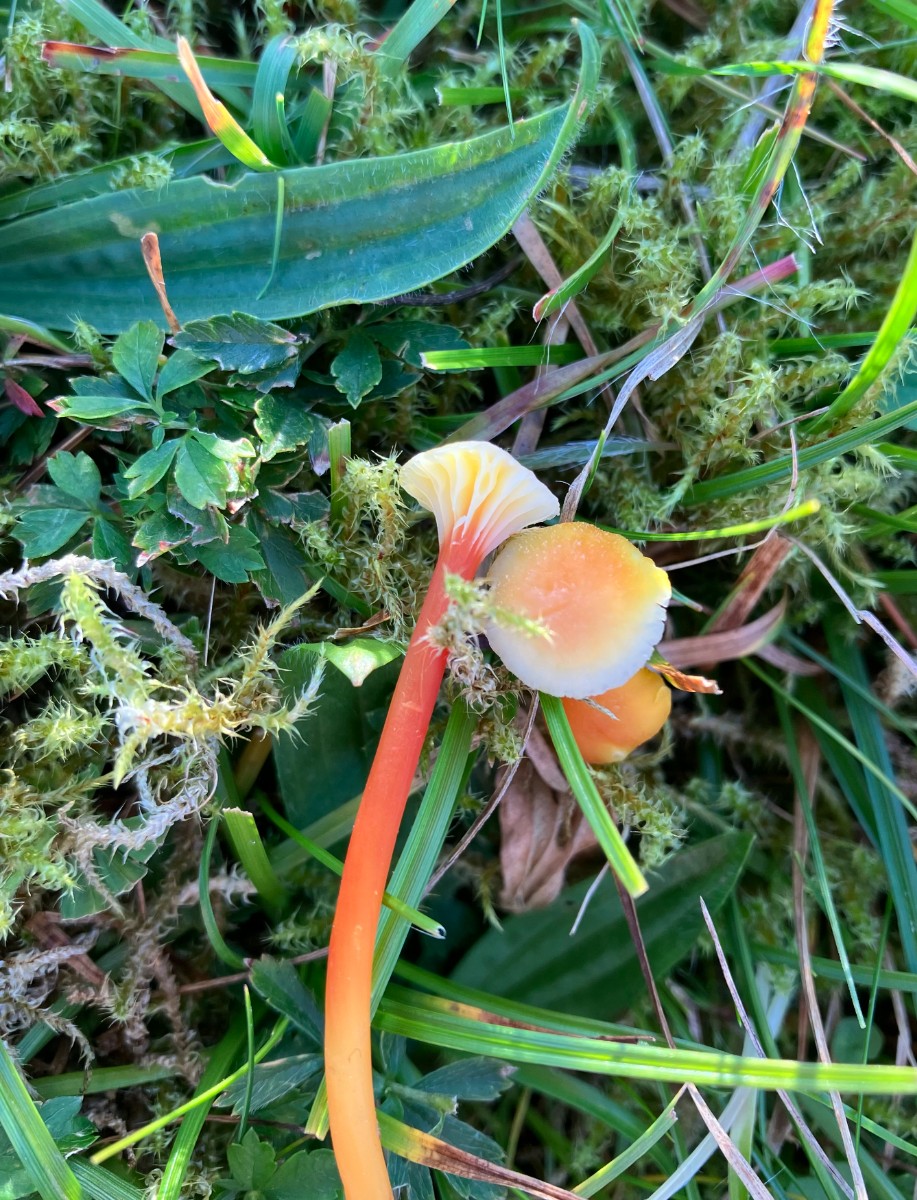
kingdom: Fungi
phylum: Basidiomycota
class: Agaricomycetes
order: Agaricales
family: Hygrophoraceae
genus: Hygrocybe
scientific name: Hygrocybe cantharellus
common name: kantarel-vokshat
